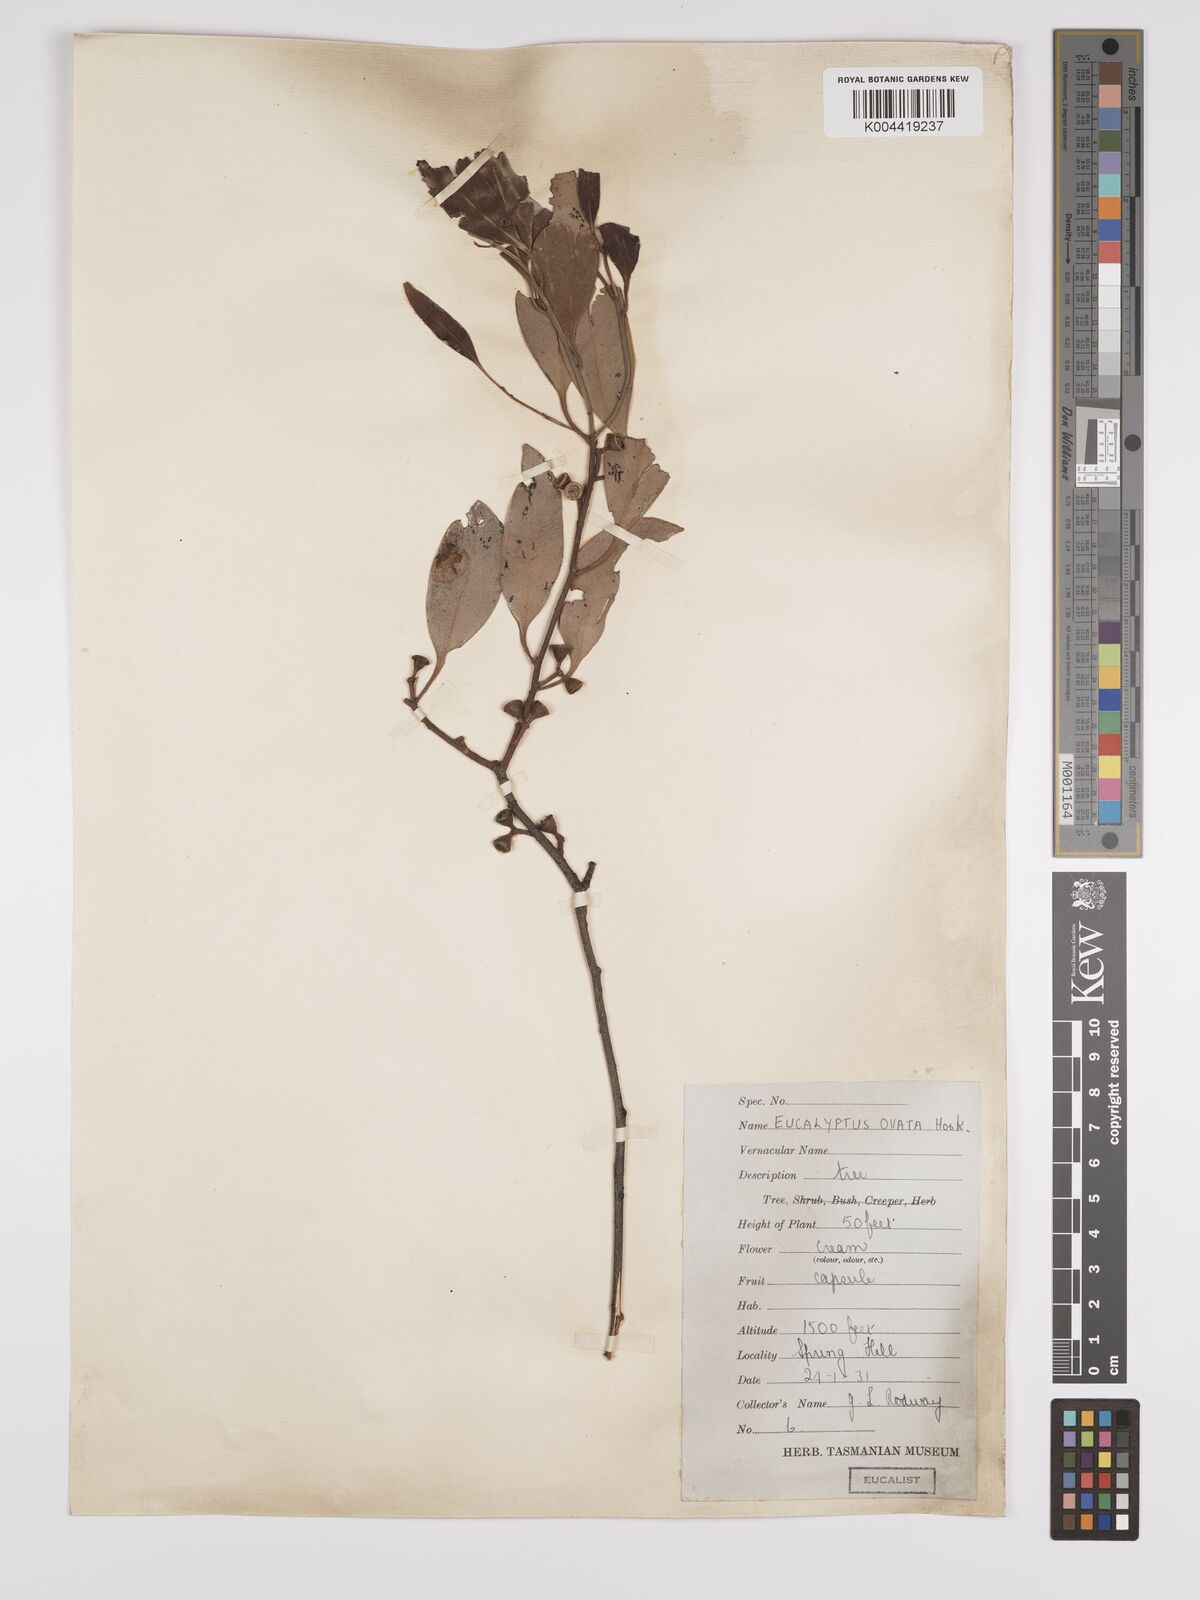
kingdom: Plantae
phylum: Tracheophyta
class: Magnoliopsida
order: Myrtales
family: Myrtaceae
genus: Eucalyptus
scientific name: Eucalyptus
